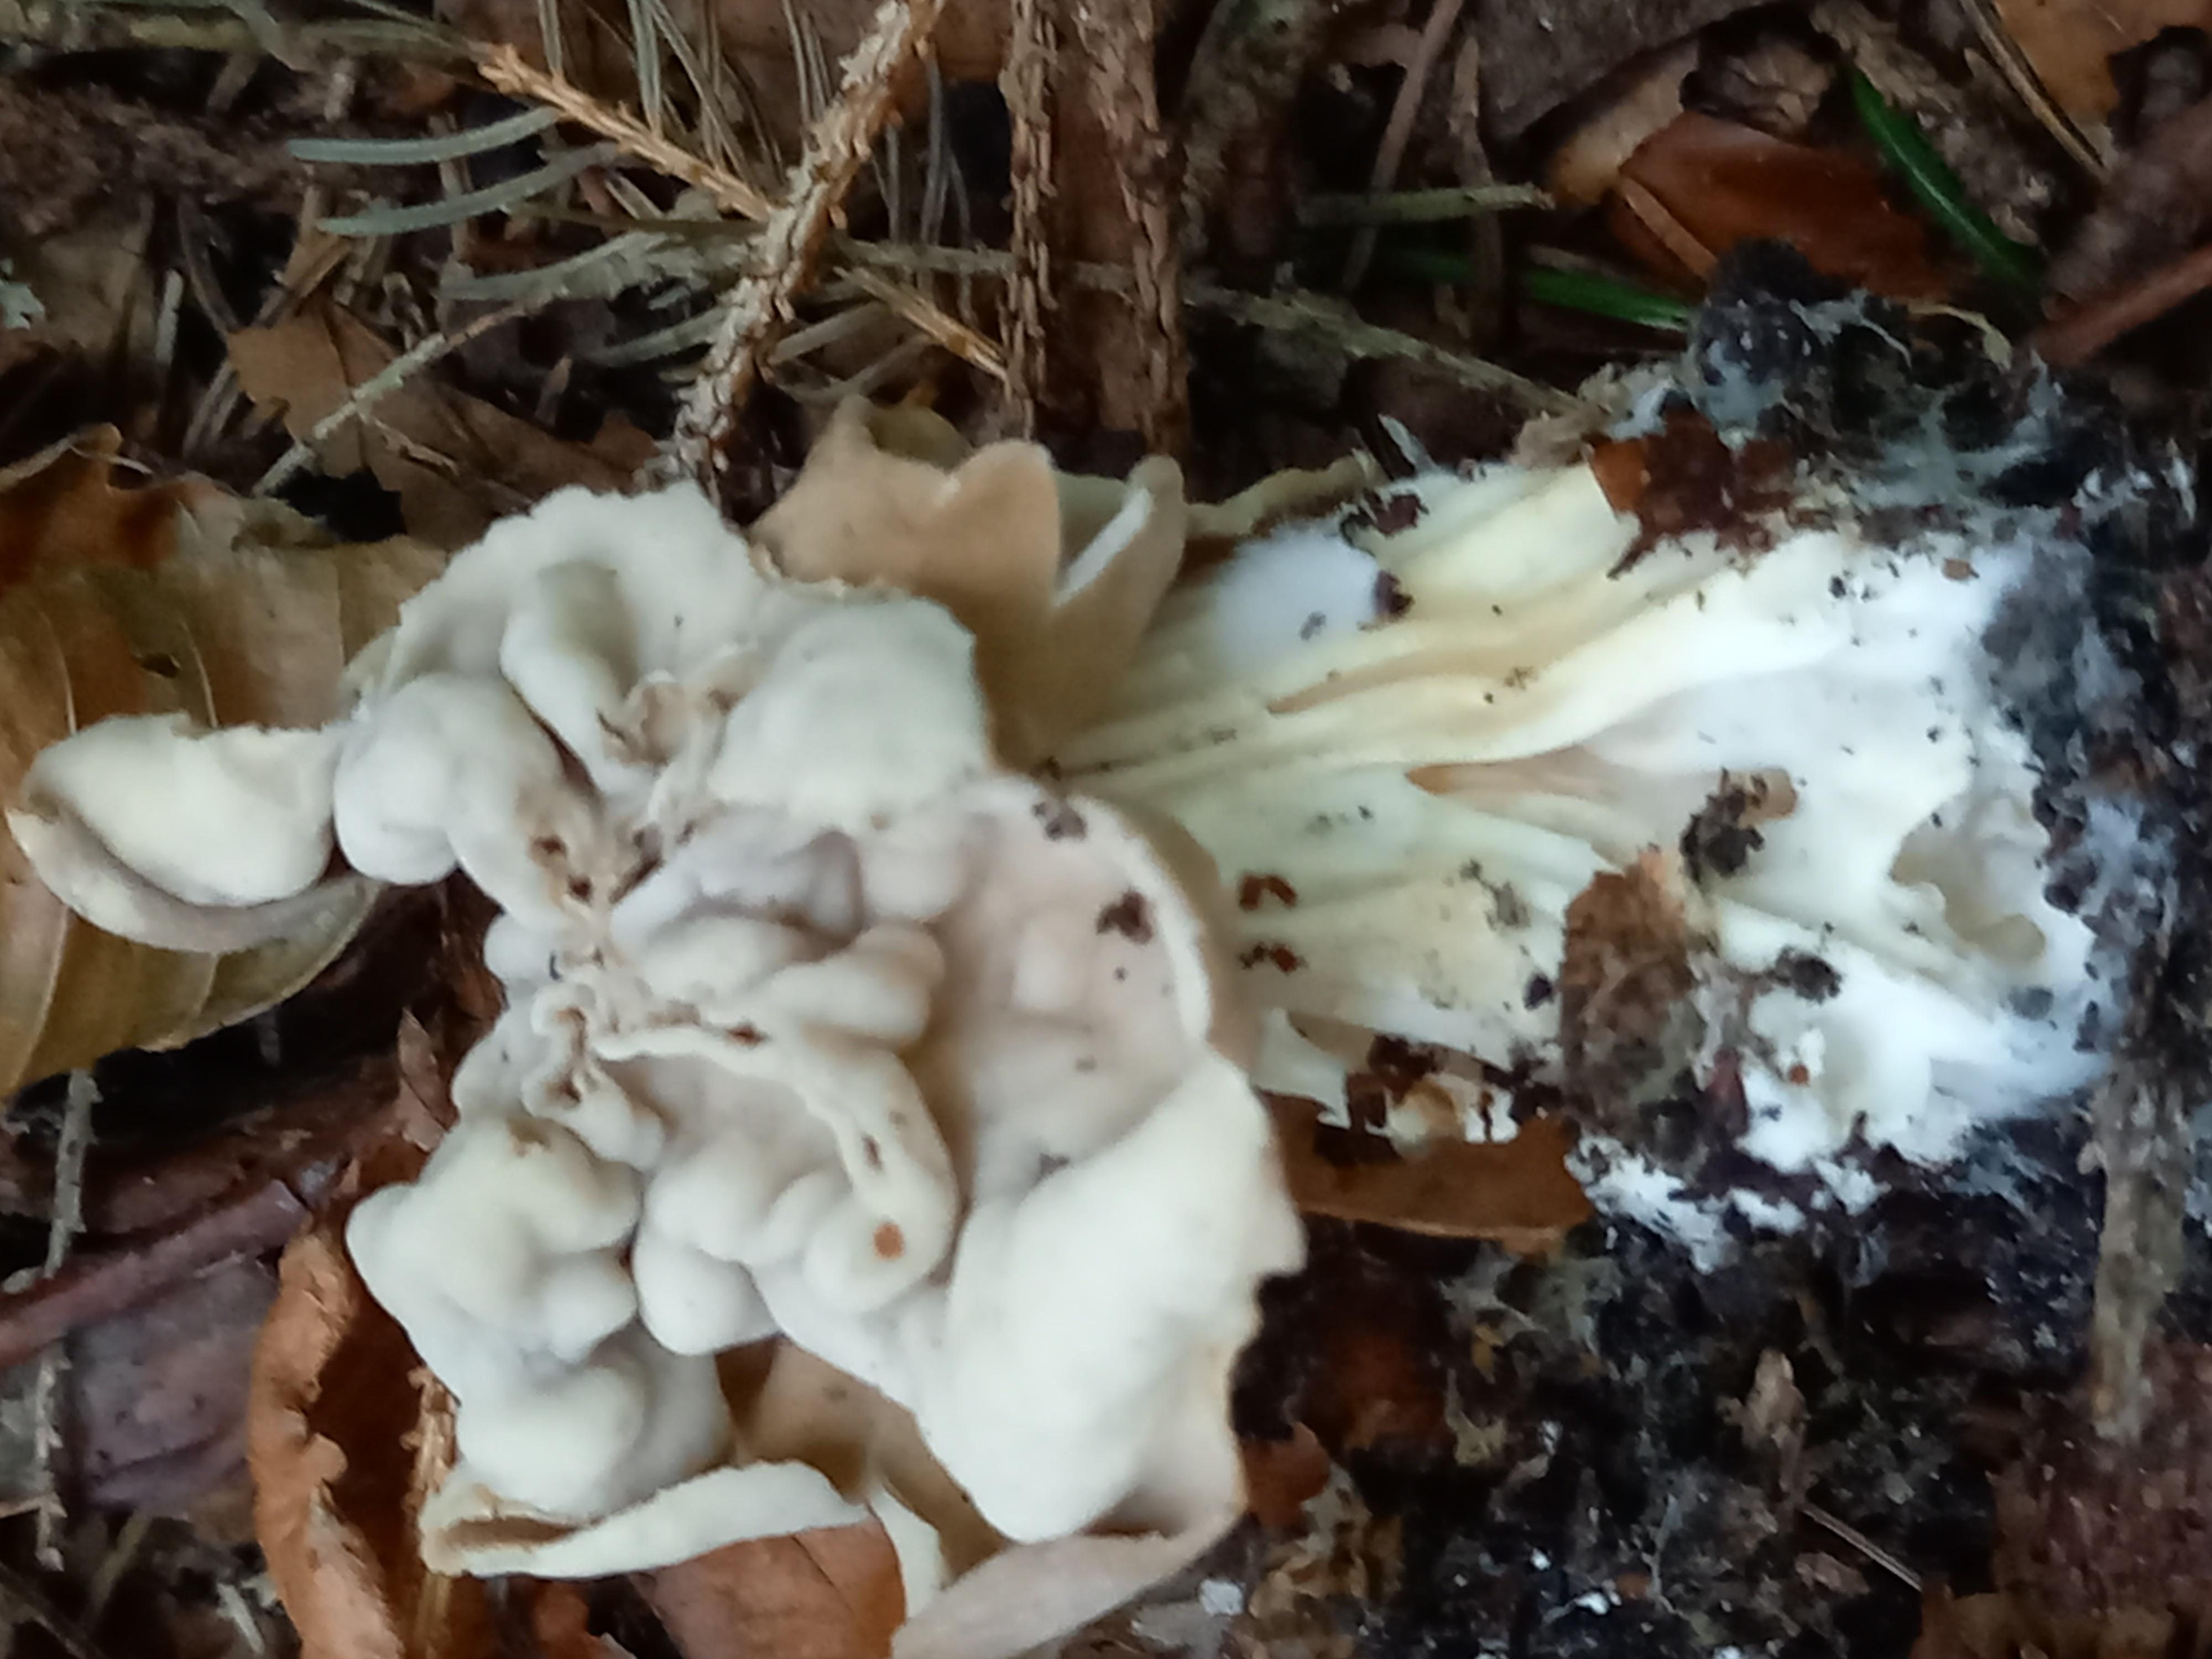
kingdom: Fungi
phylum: Ascomycota
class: Pezizomycetes
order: Pezizales
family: Helvellaceae
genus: Helvella
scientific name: Helvella crispa
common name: kruset foldhat
